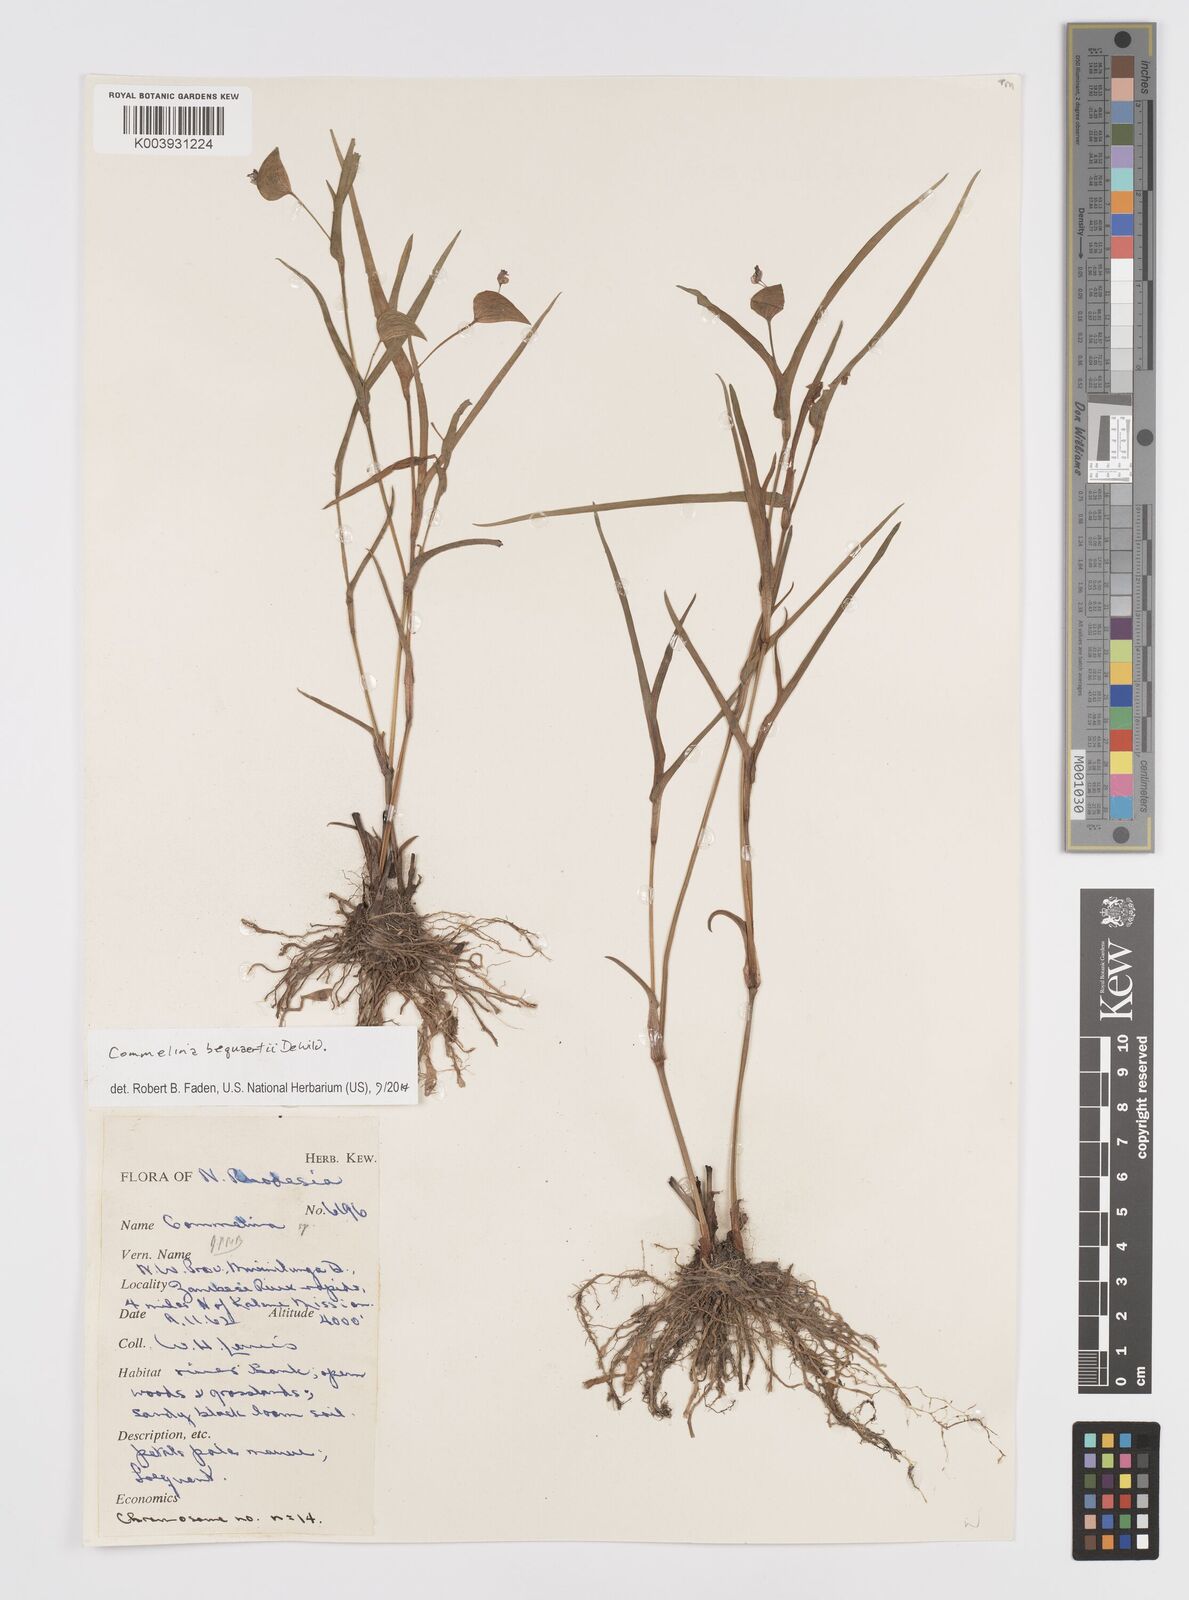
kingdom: Plantae
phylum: Tracheophyta
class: Liliopsida
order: Commelinales
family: Commelinaceae
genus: Commelina
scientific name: Commelina bequaertii
